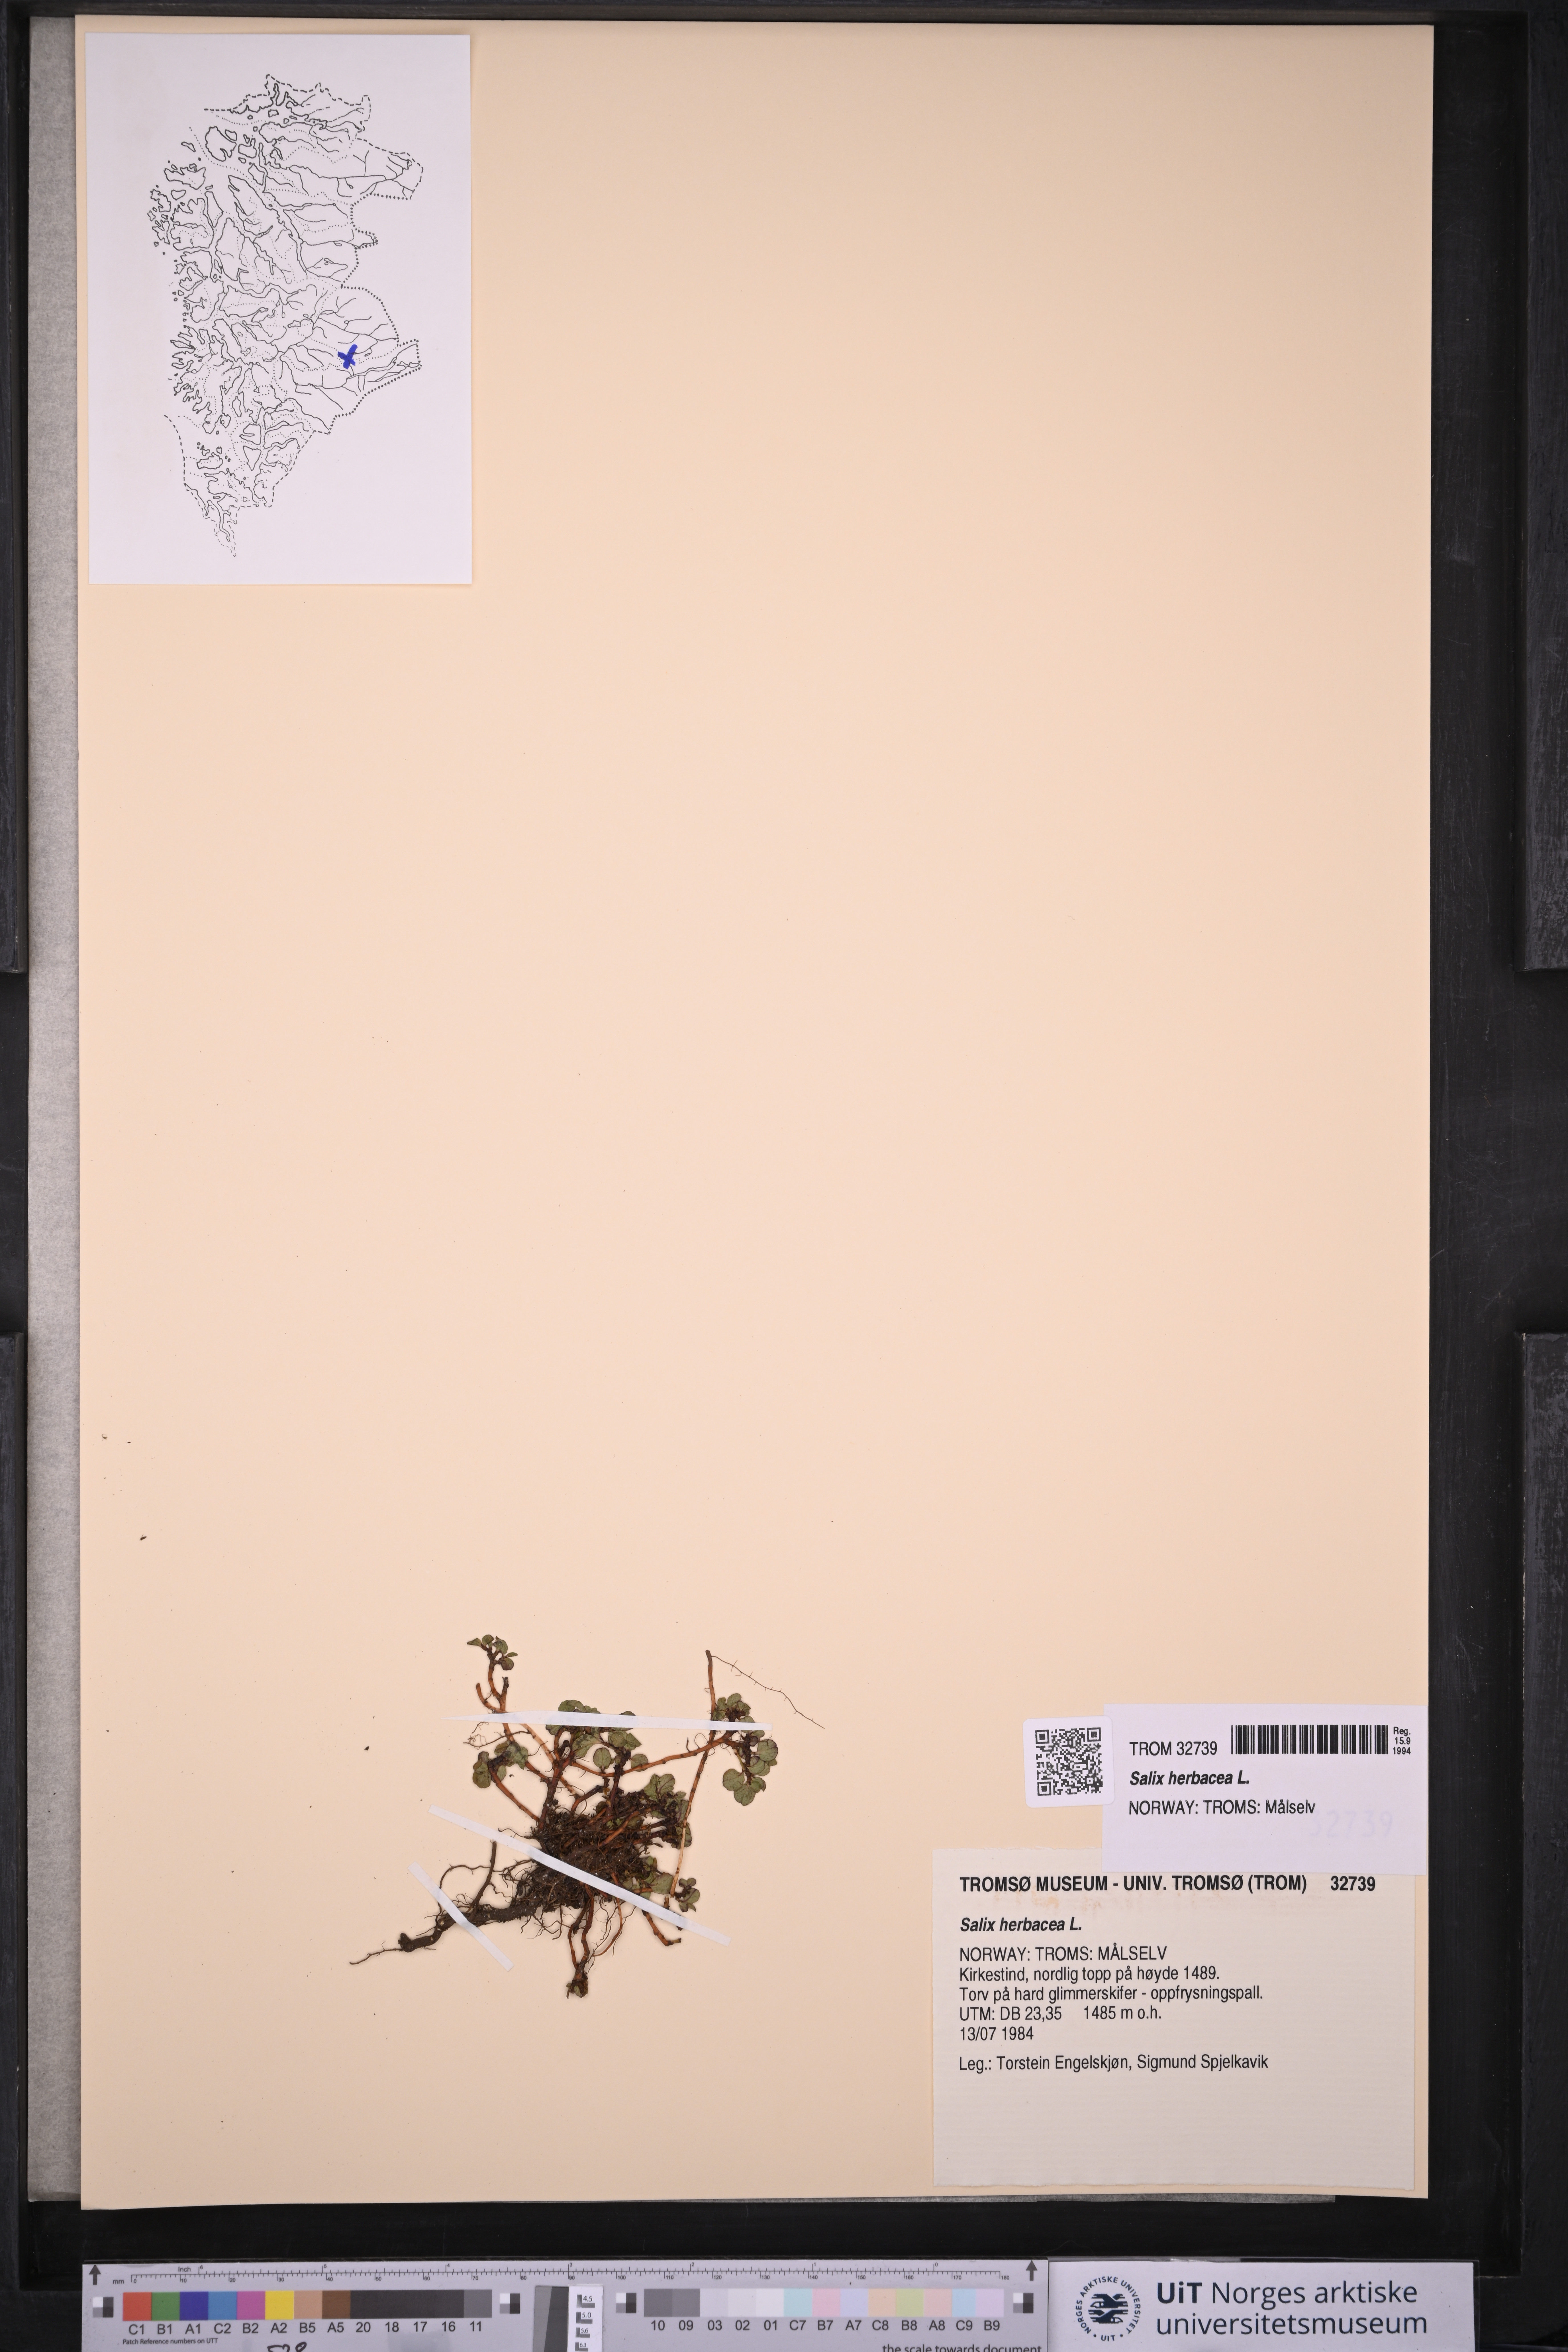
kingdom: Plantae
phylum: Tracheophyta
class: Magnoliopsida
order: Malpighiales
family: Salicaceae
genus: Salix
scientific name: Salix herbacea
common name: Dwarf willow
